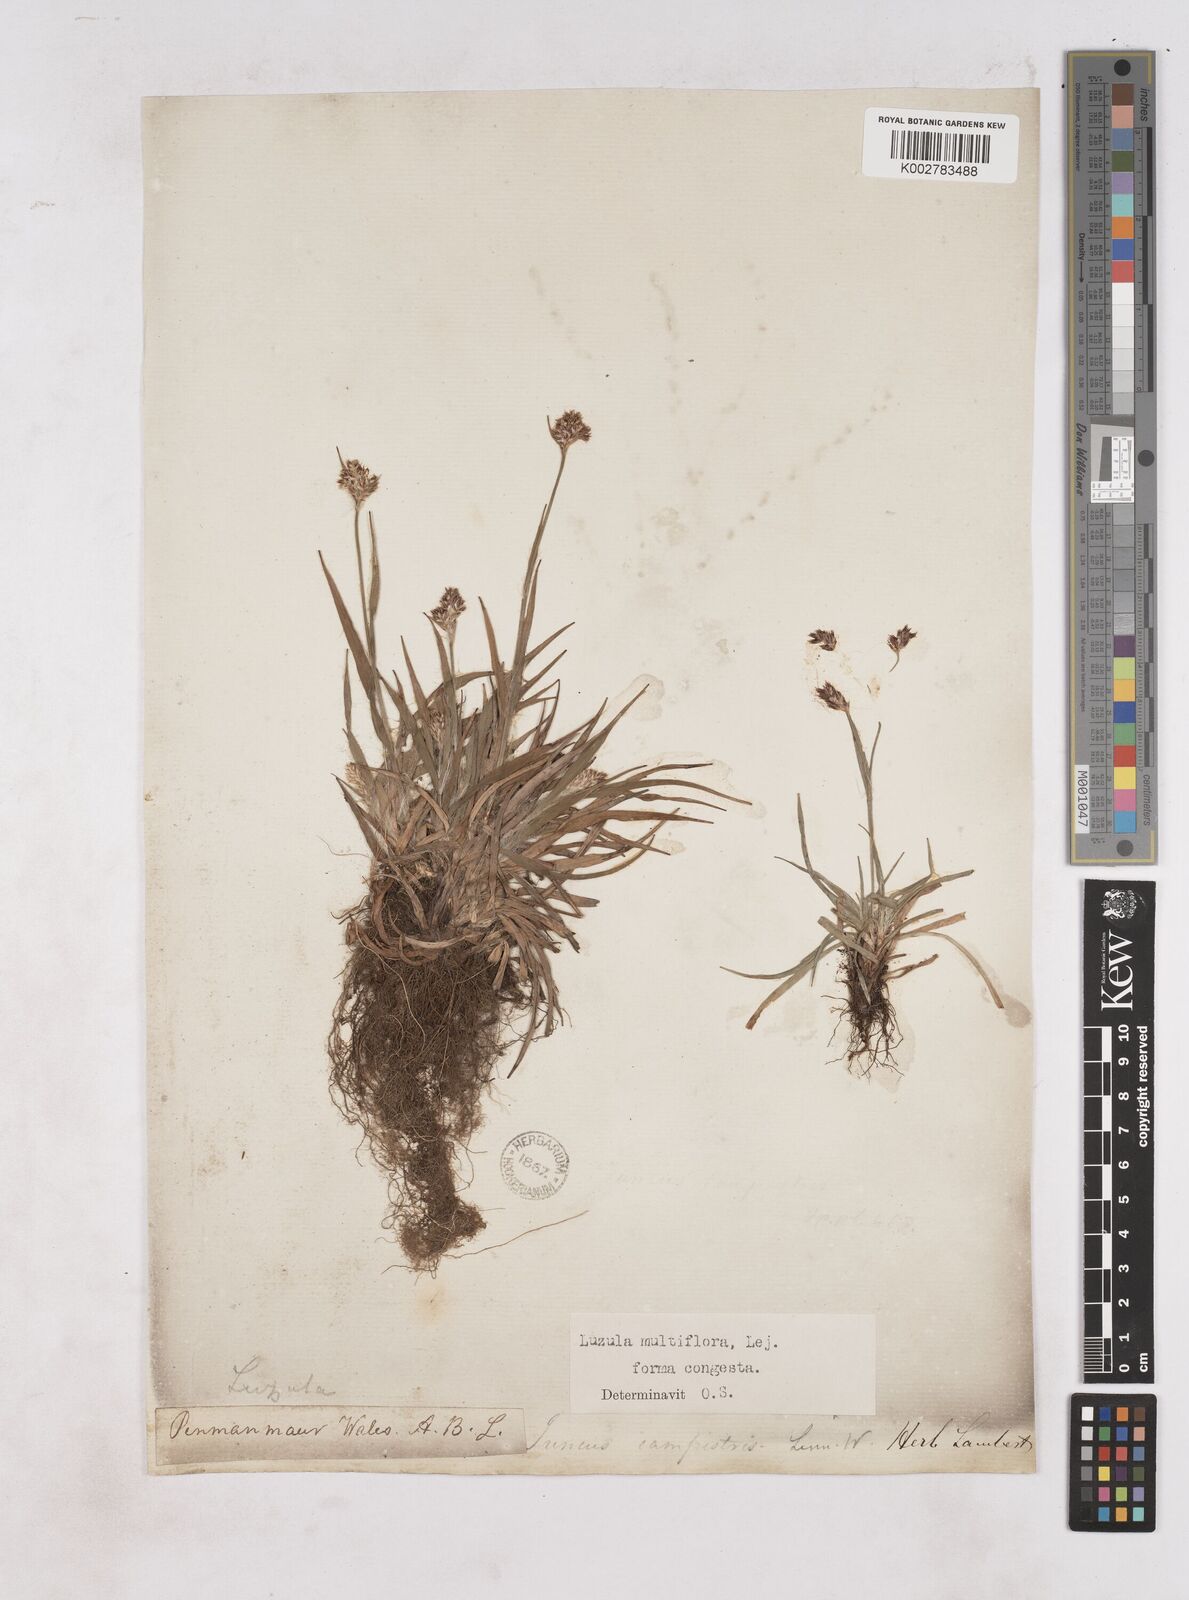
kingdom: Plantae
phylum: Tracheophyta
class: Liliopsida
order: Poales
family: Juncaceae
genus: Luzula
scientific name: Luzula campestris
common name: Field wood-rush
